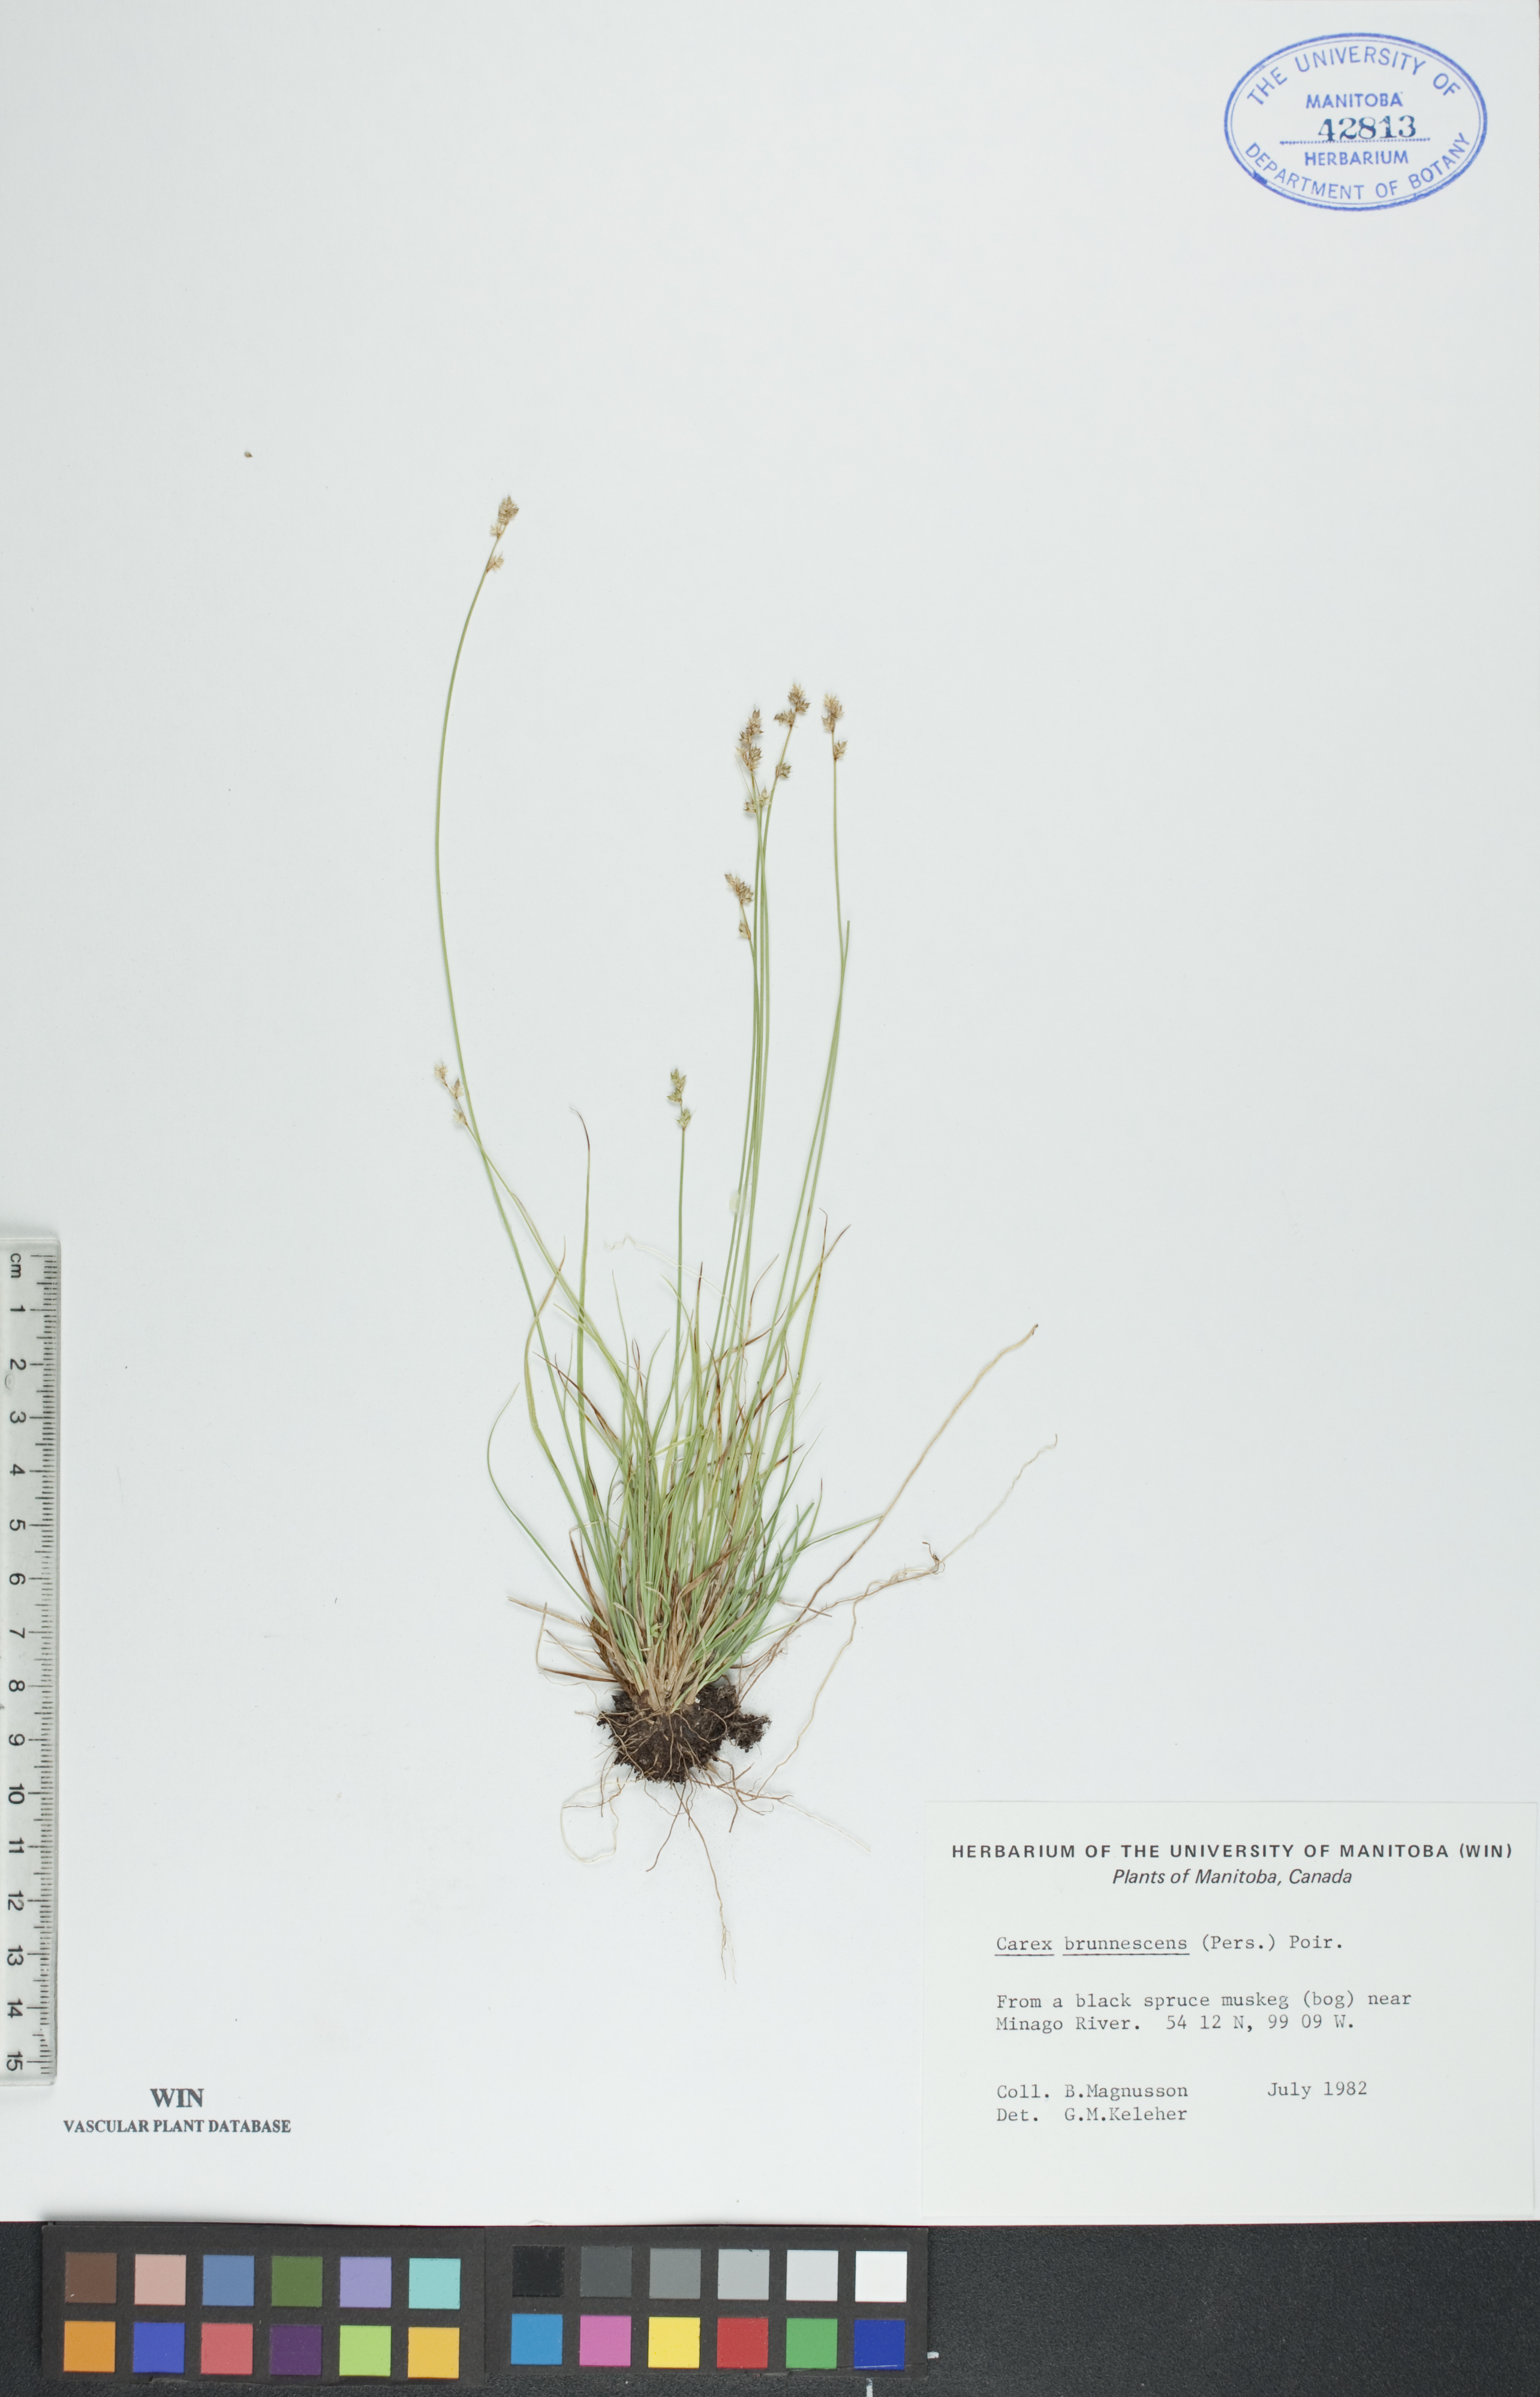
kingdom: Plantae
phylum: Tracheophyta
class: Liliopsida
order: Poales
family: Cyperaceae
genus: Carex
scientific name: Carex brunnescens
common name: Brown sedge
